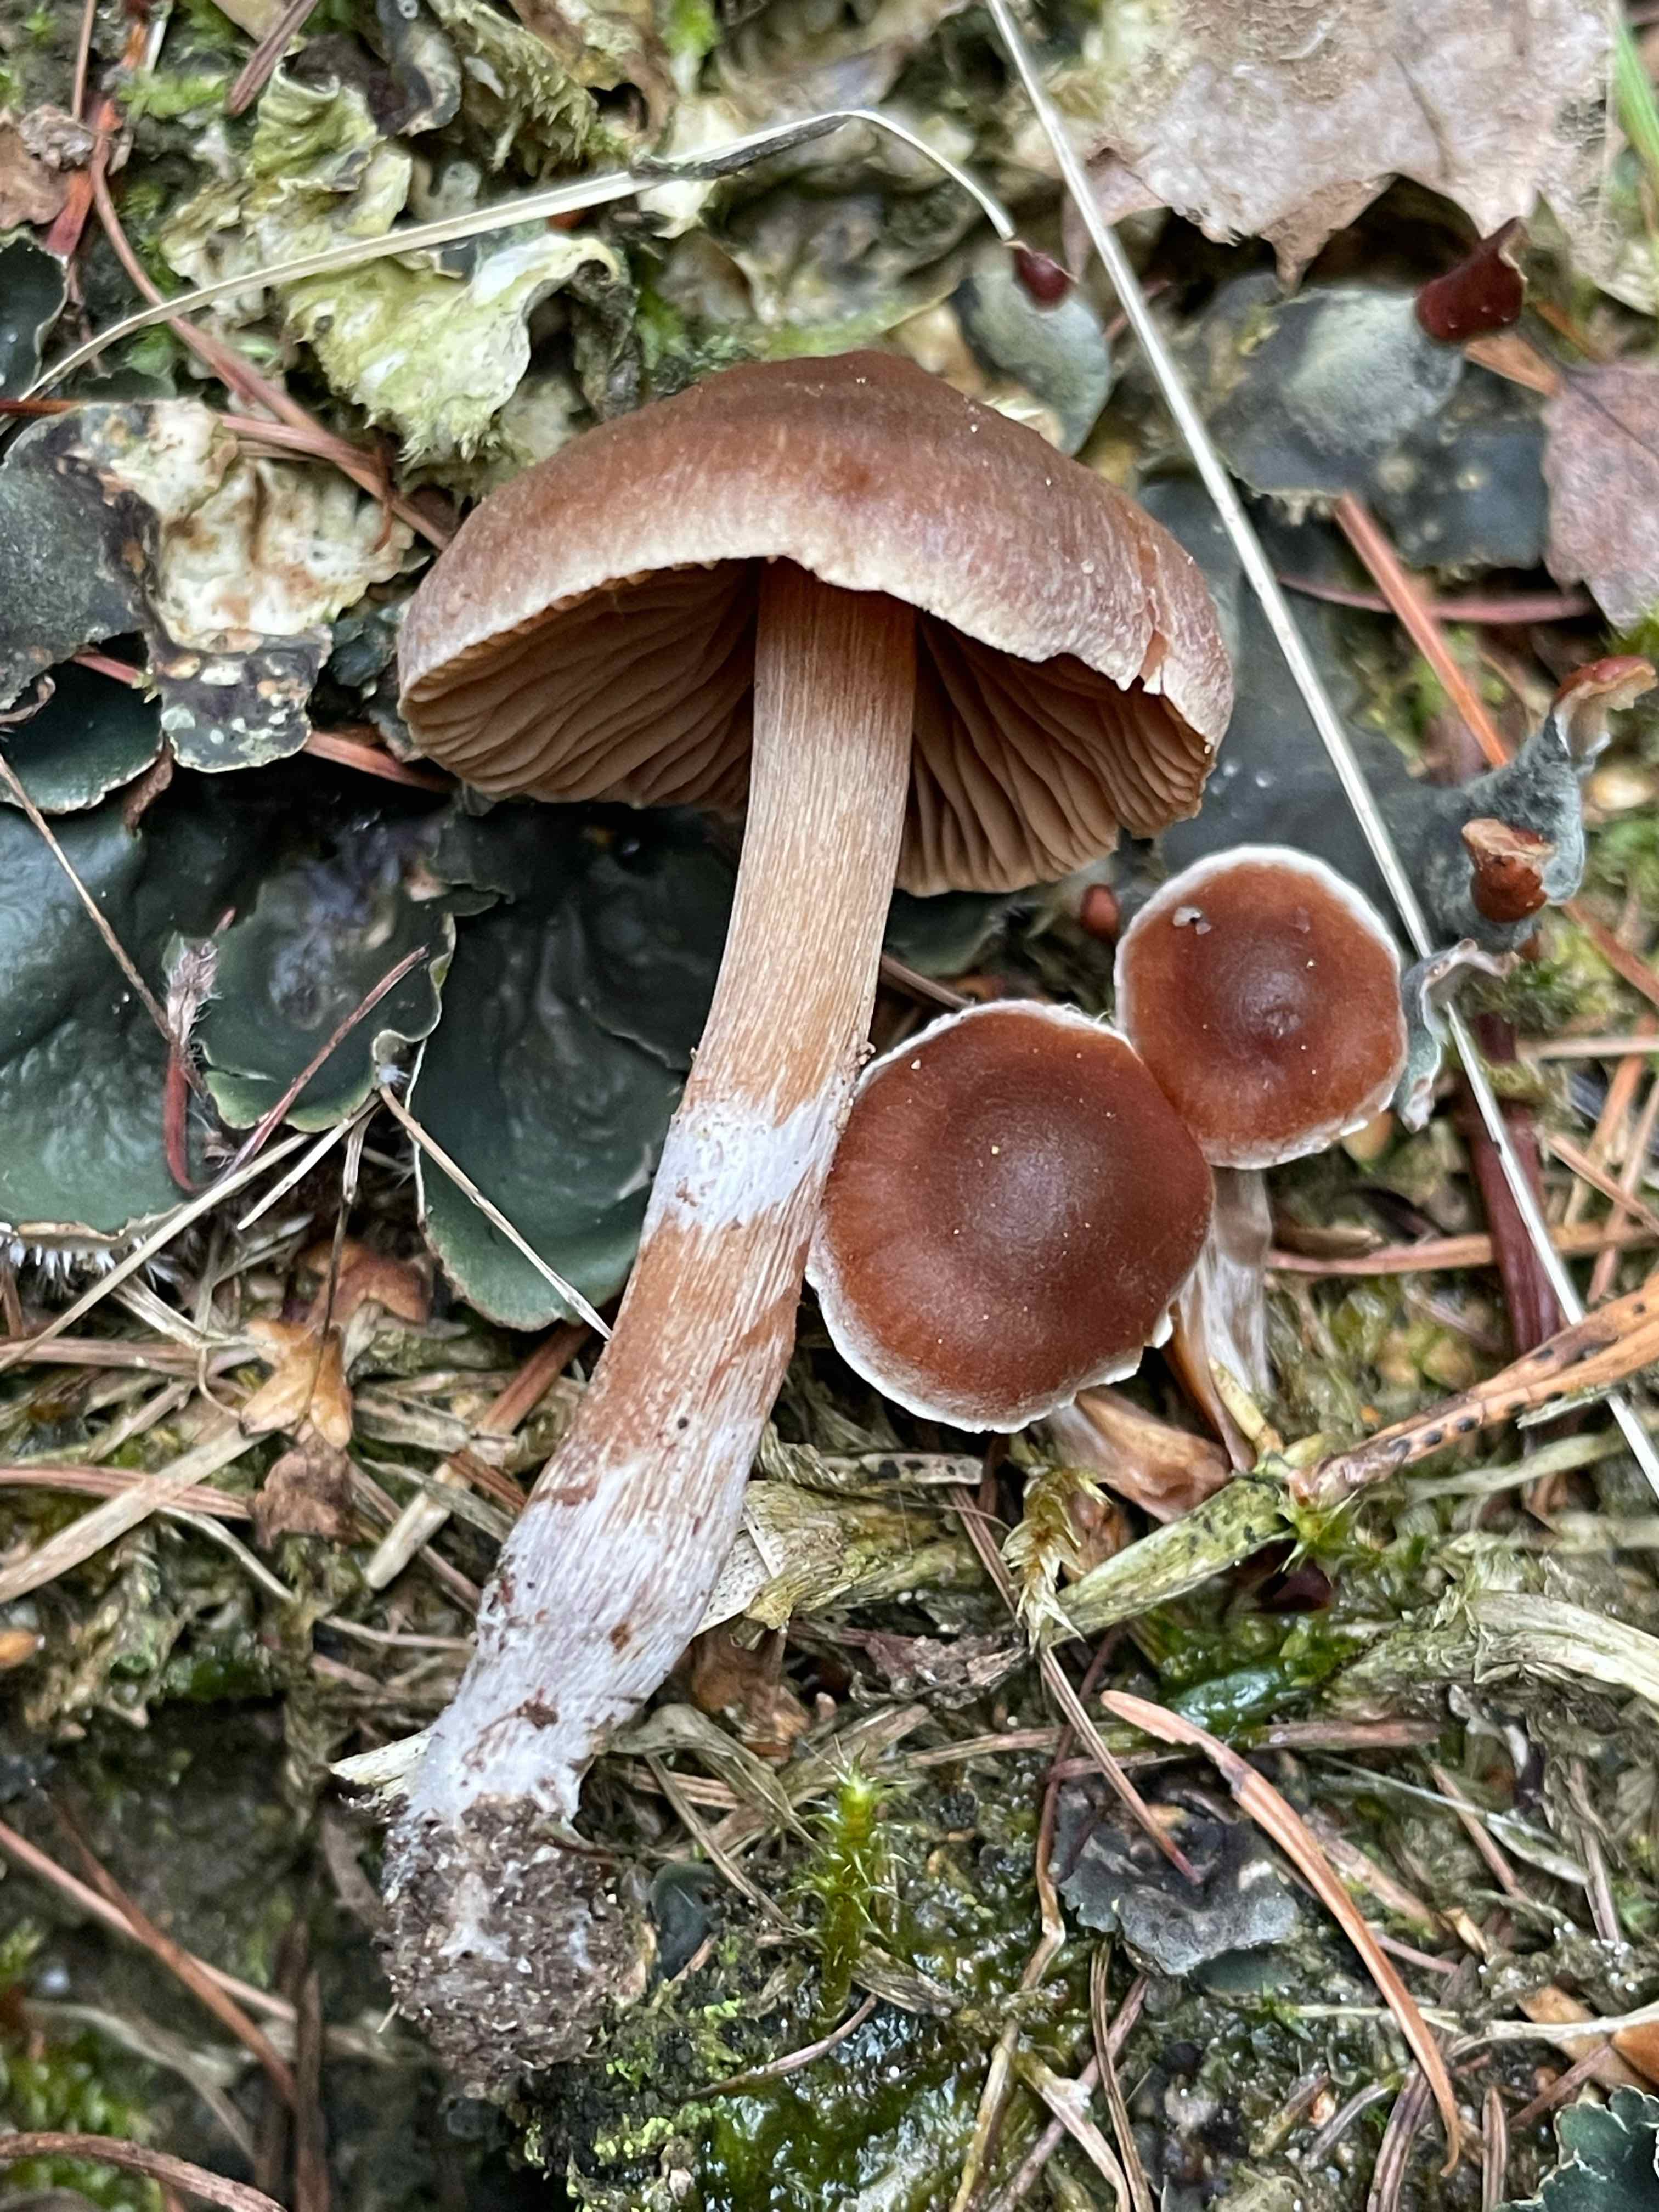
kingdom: Fungi
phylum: Basidiomycota
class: Agaricomycetes
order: Agaricales
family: Cortinariaceae
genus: Cortinarius
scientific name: Cortinarius
